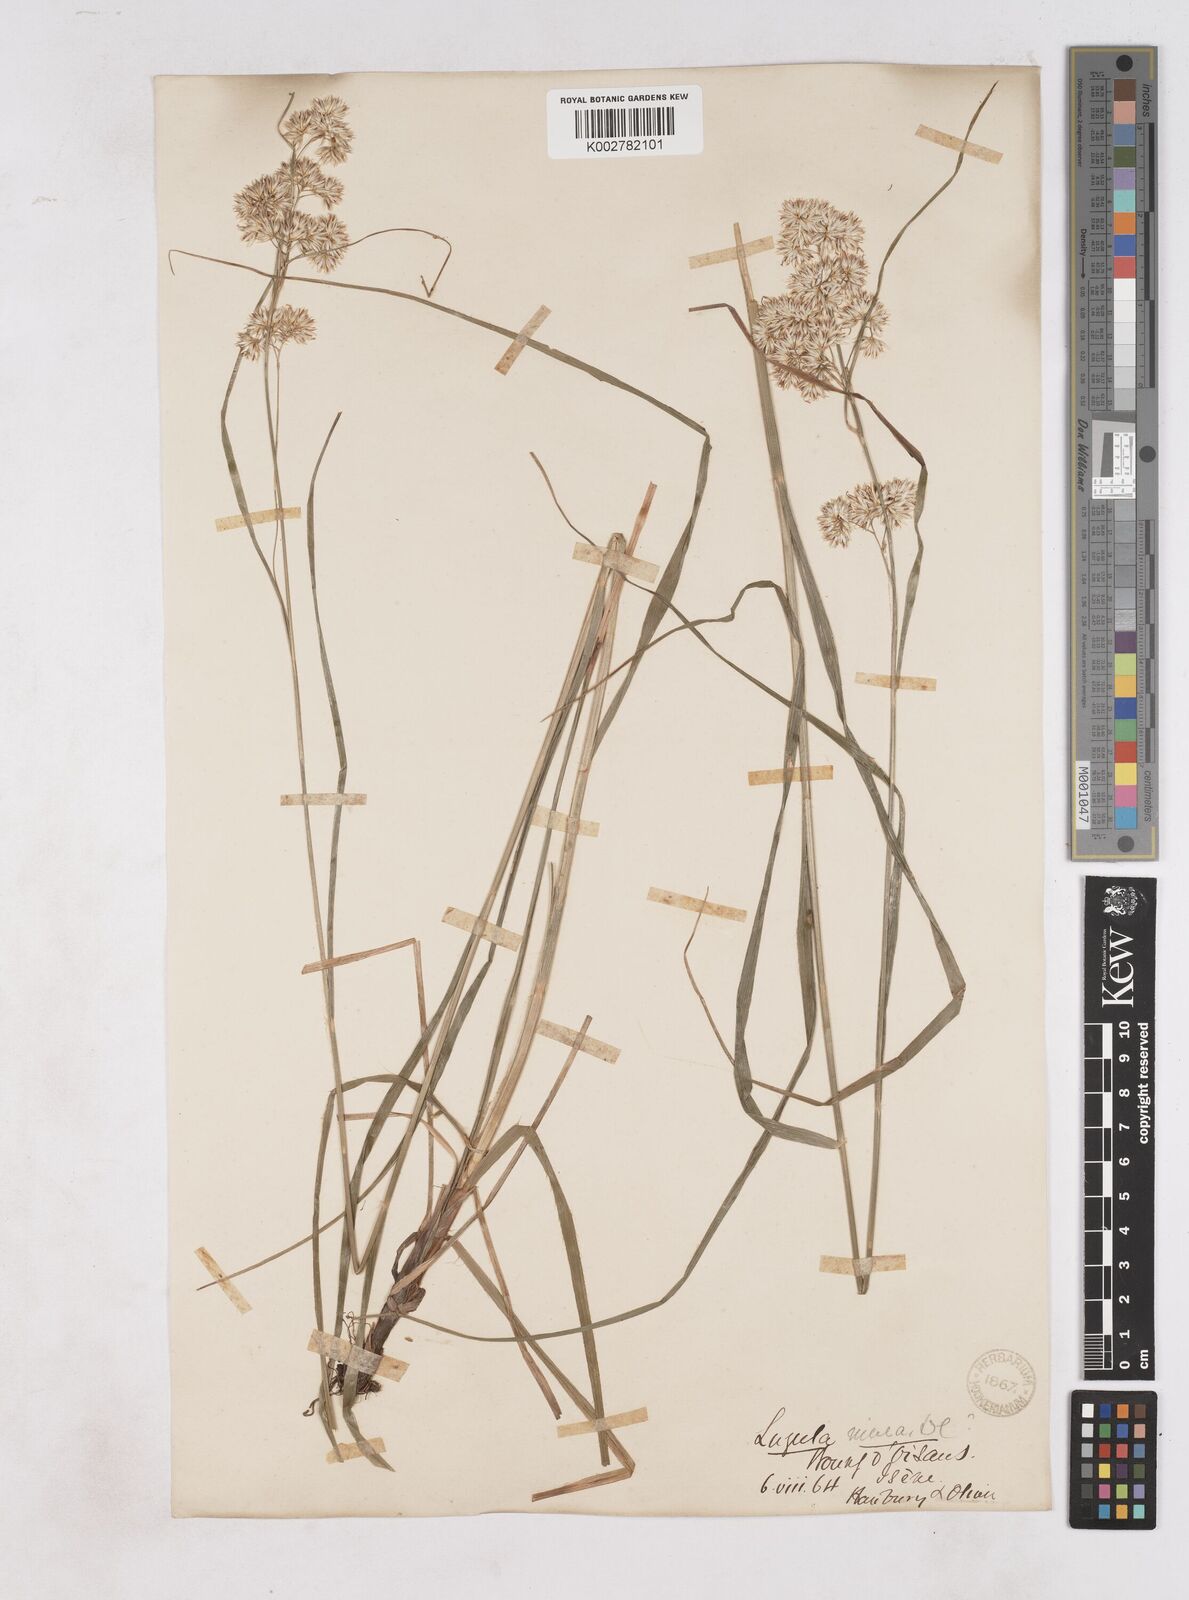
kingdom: Plantae
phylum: Tracheophyta
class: Liliopsida
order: Poales
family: Juncaceae
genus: Luzula
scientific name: Luzula nivea
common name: Snow-white wood-rush
